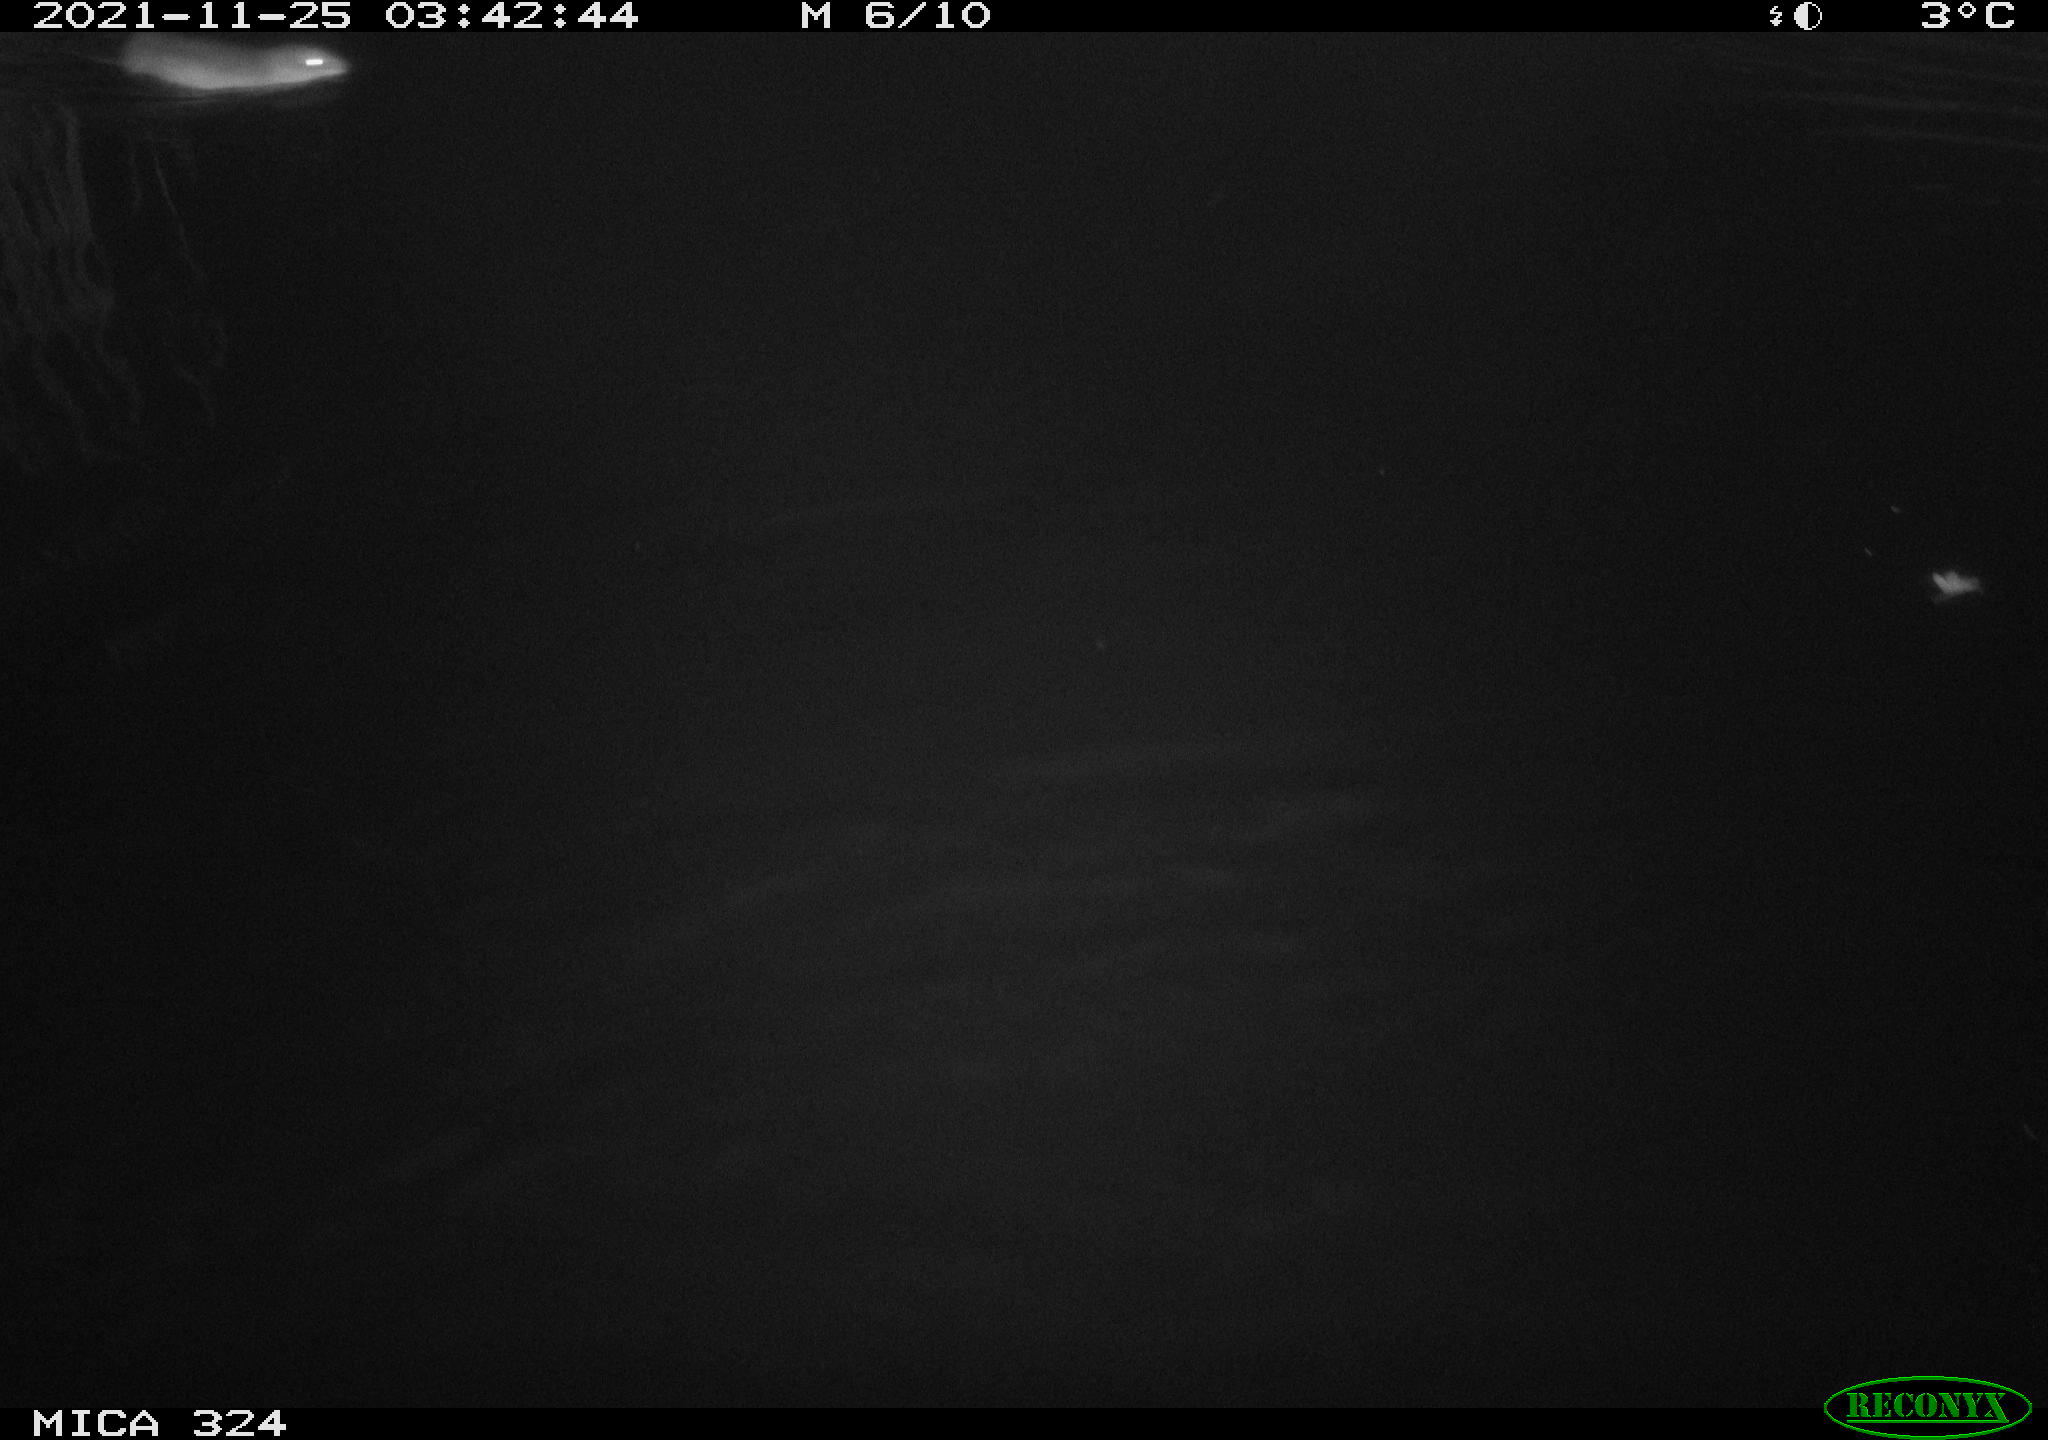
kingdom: Animalia
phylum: Chordata
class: Mammalia
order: Rodentia
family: Cricetidae
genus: Ondatra
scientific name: Ondatra zibethicus
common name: Muskrat
